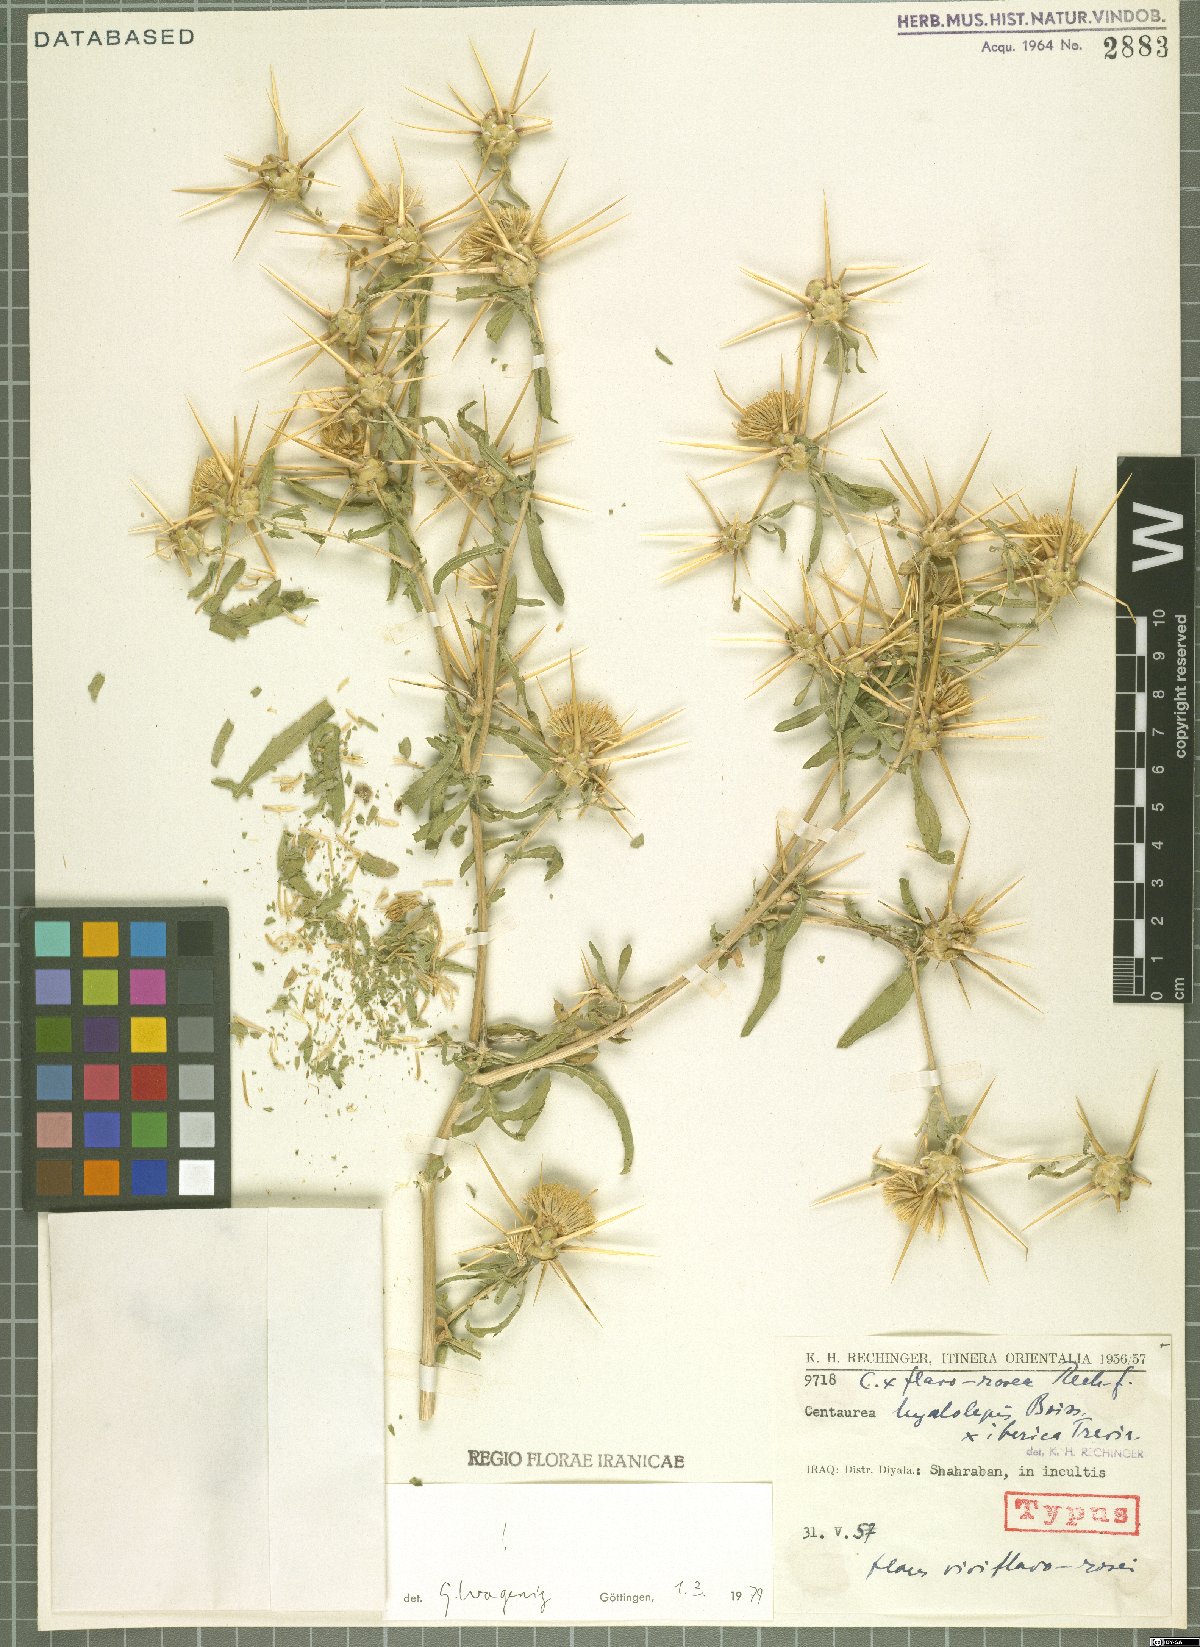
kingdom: Plantae
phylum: Tracheophyta
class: Magnoliopsida
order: Asterales
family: Asteraceae
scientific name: Asteraceae
